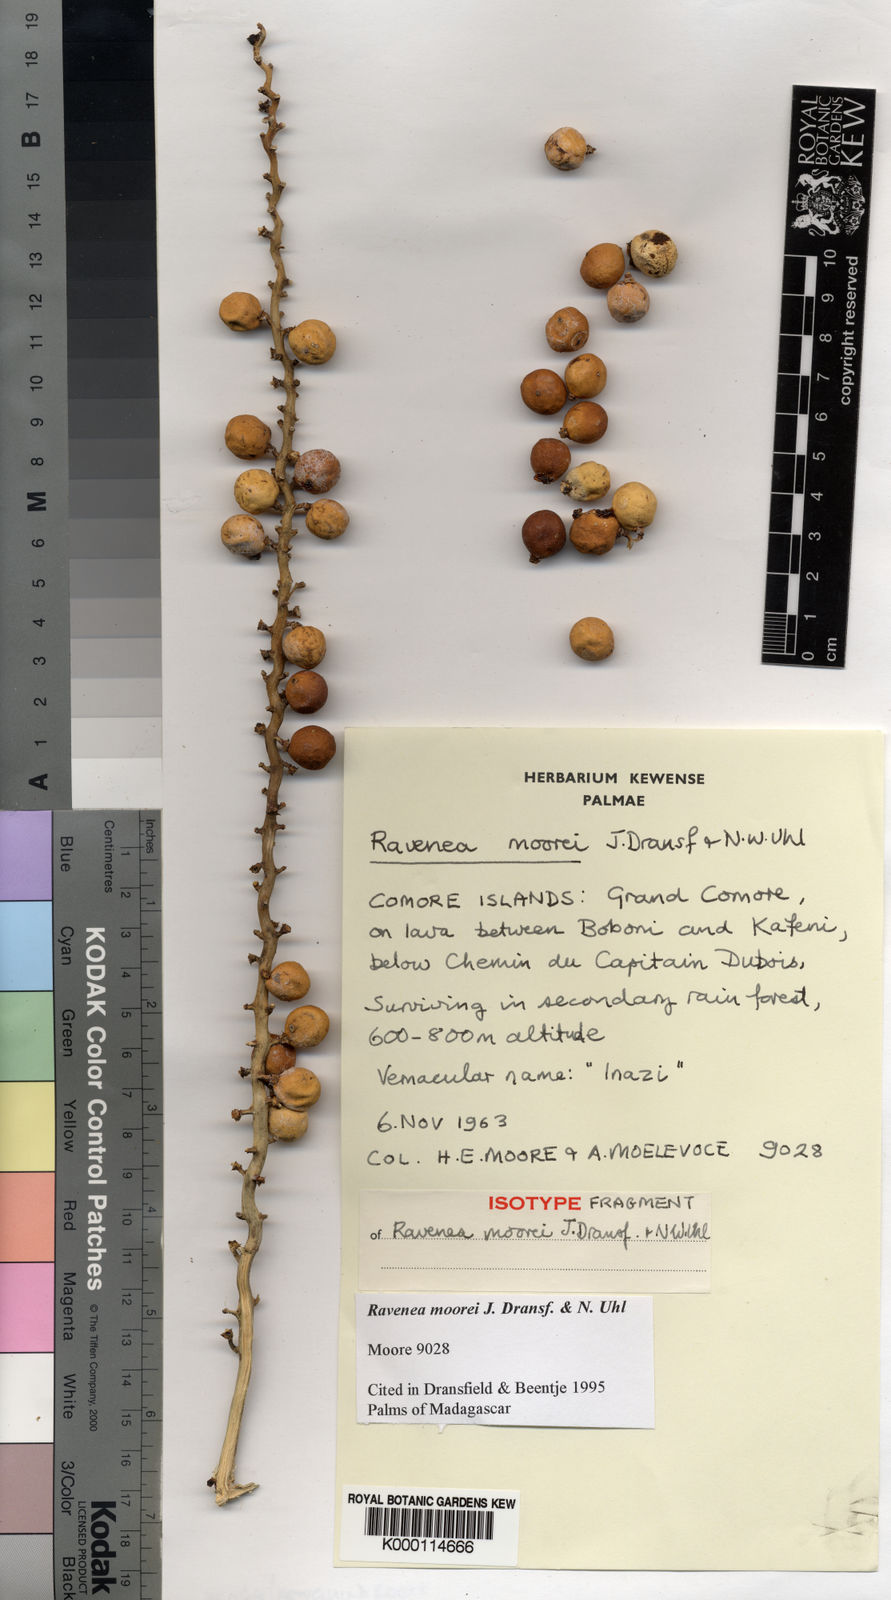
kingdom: Plantae
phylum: Tracheophyta
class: Liliopsida
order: Arecales
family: Arecaceae
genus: Ravenea
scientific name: Ravenea moorei
